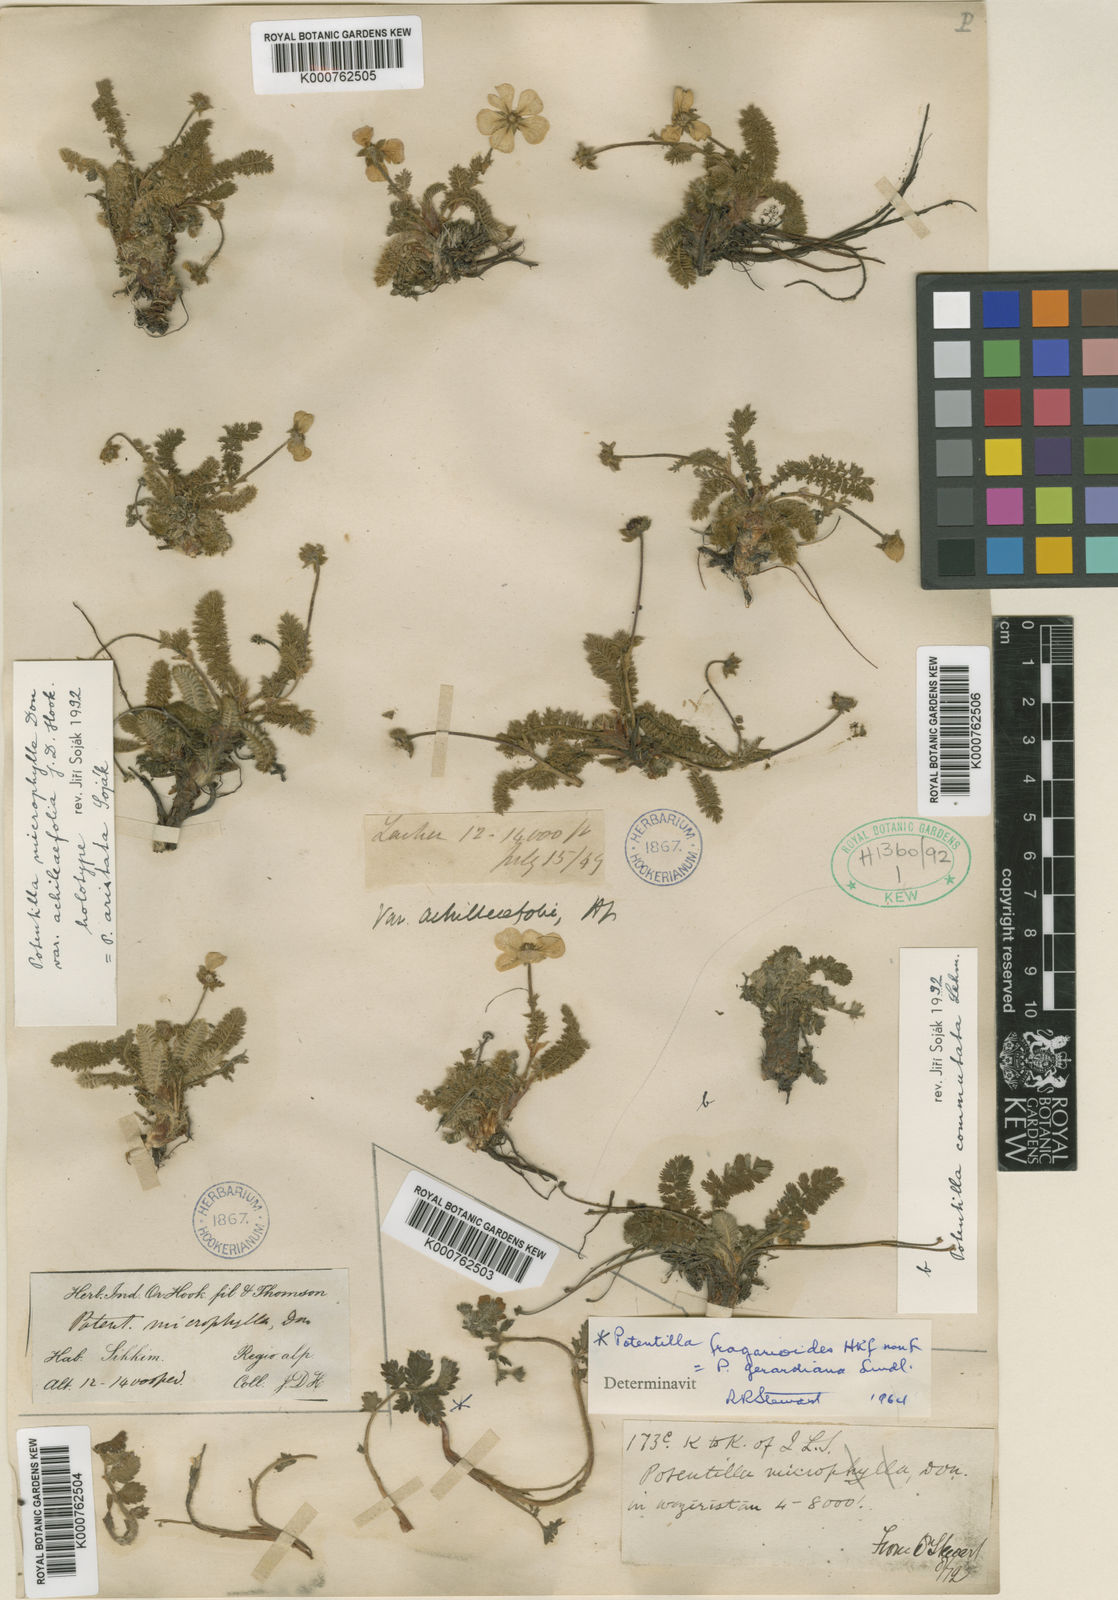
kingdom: Plantae
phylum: Tracheophyta
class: Magnoliopsida
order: Rosales
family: Rosaceae
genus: Potentilla
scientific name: Potentilla
